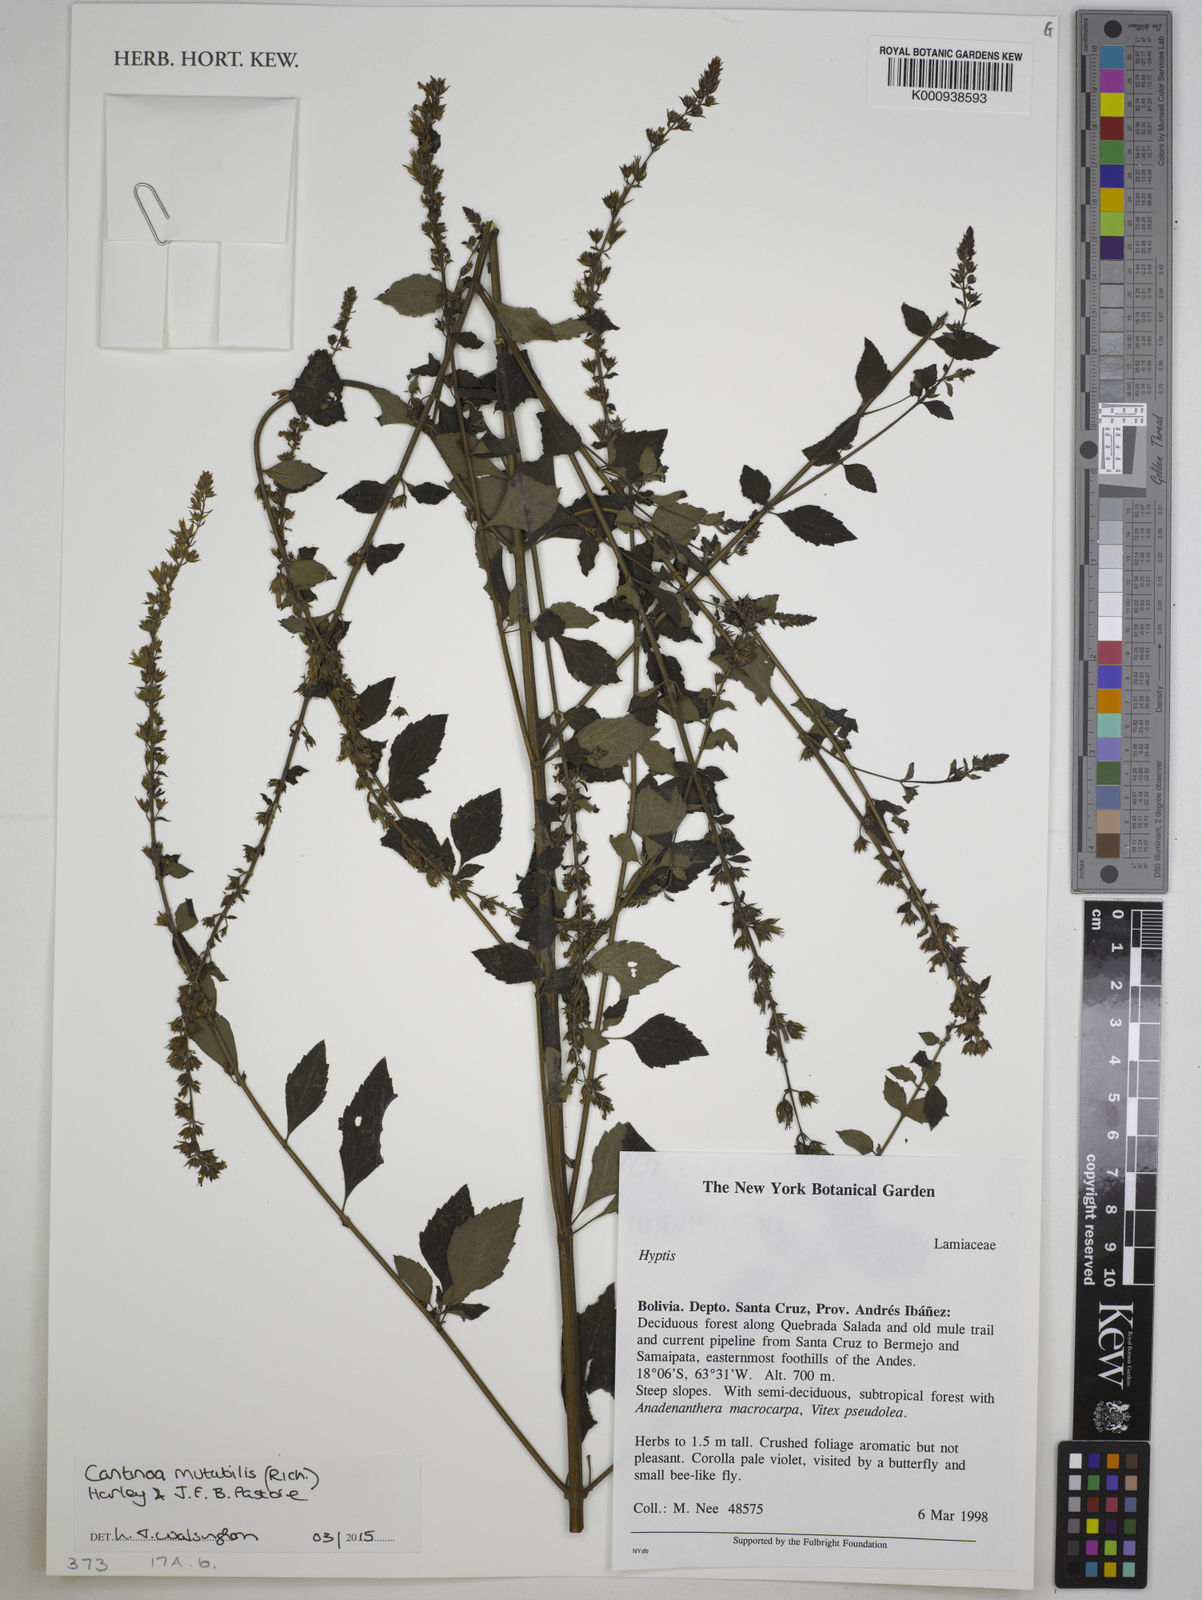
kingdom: Plantae
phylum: Tracheophyta
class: Magnoliopsida
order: Lamiales
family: Lamiaceae
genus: Cantinoa
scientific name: Cantinoa mutabilis
